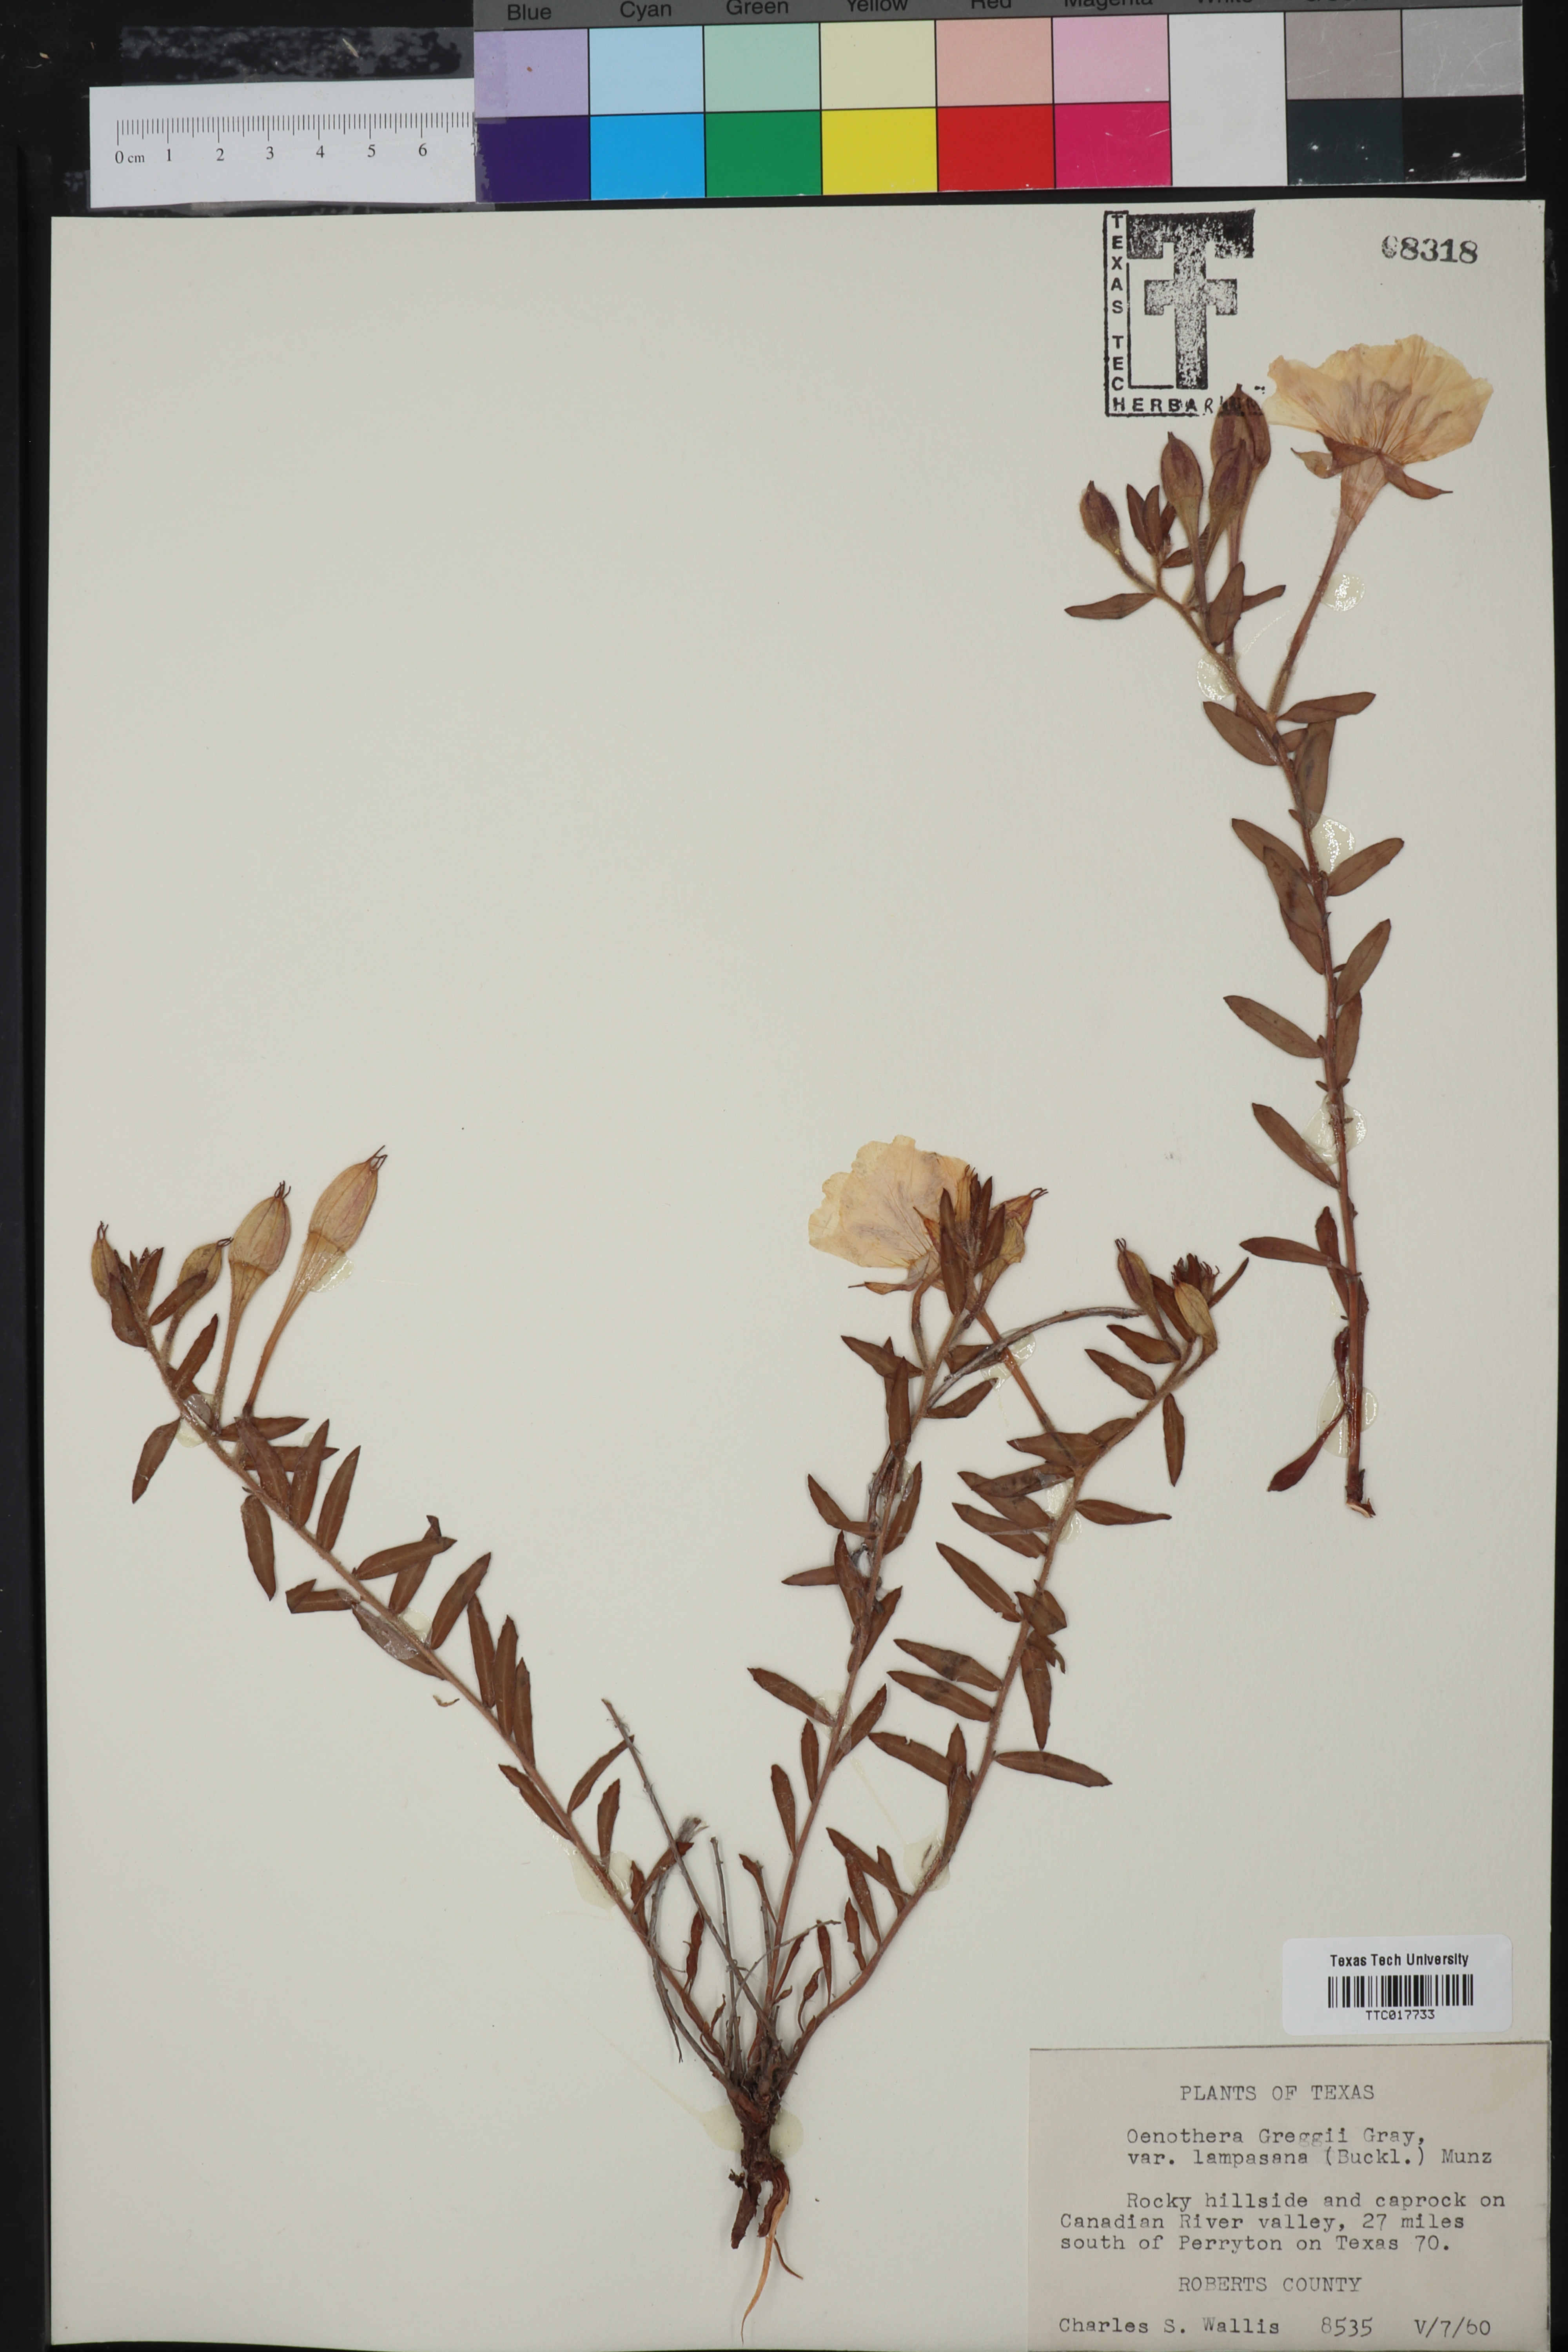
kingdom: Plantae
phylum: Tracheophyta
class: Magnoliopsida
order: Myrtales
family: Onagraceae
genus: Oenothera
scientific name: Oenothera hartwegii
